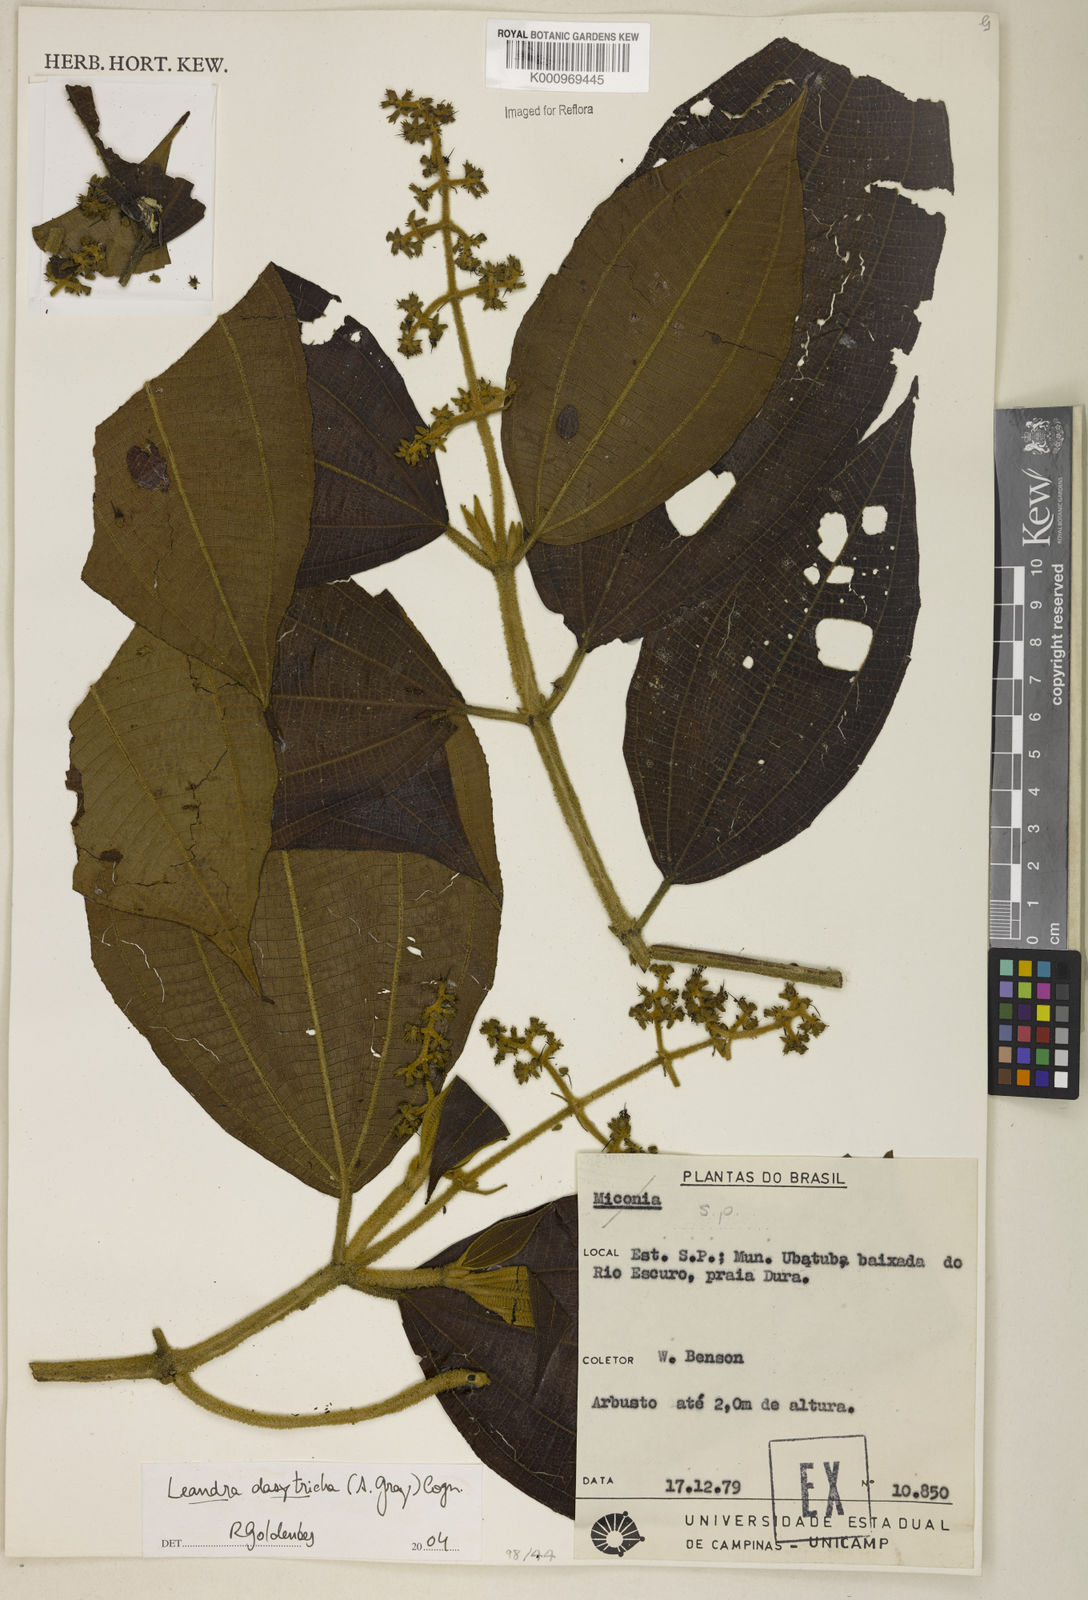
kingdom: Plantae
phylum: Tracheophyta
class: Magnoliopsida
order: Myrtales
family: Melastomataceae
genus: Miconia
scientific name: Miconia dasytricha
